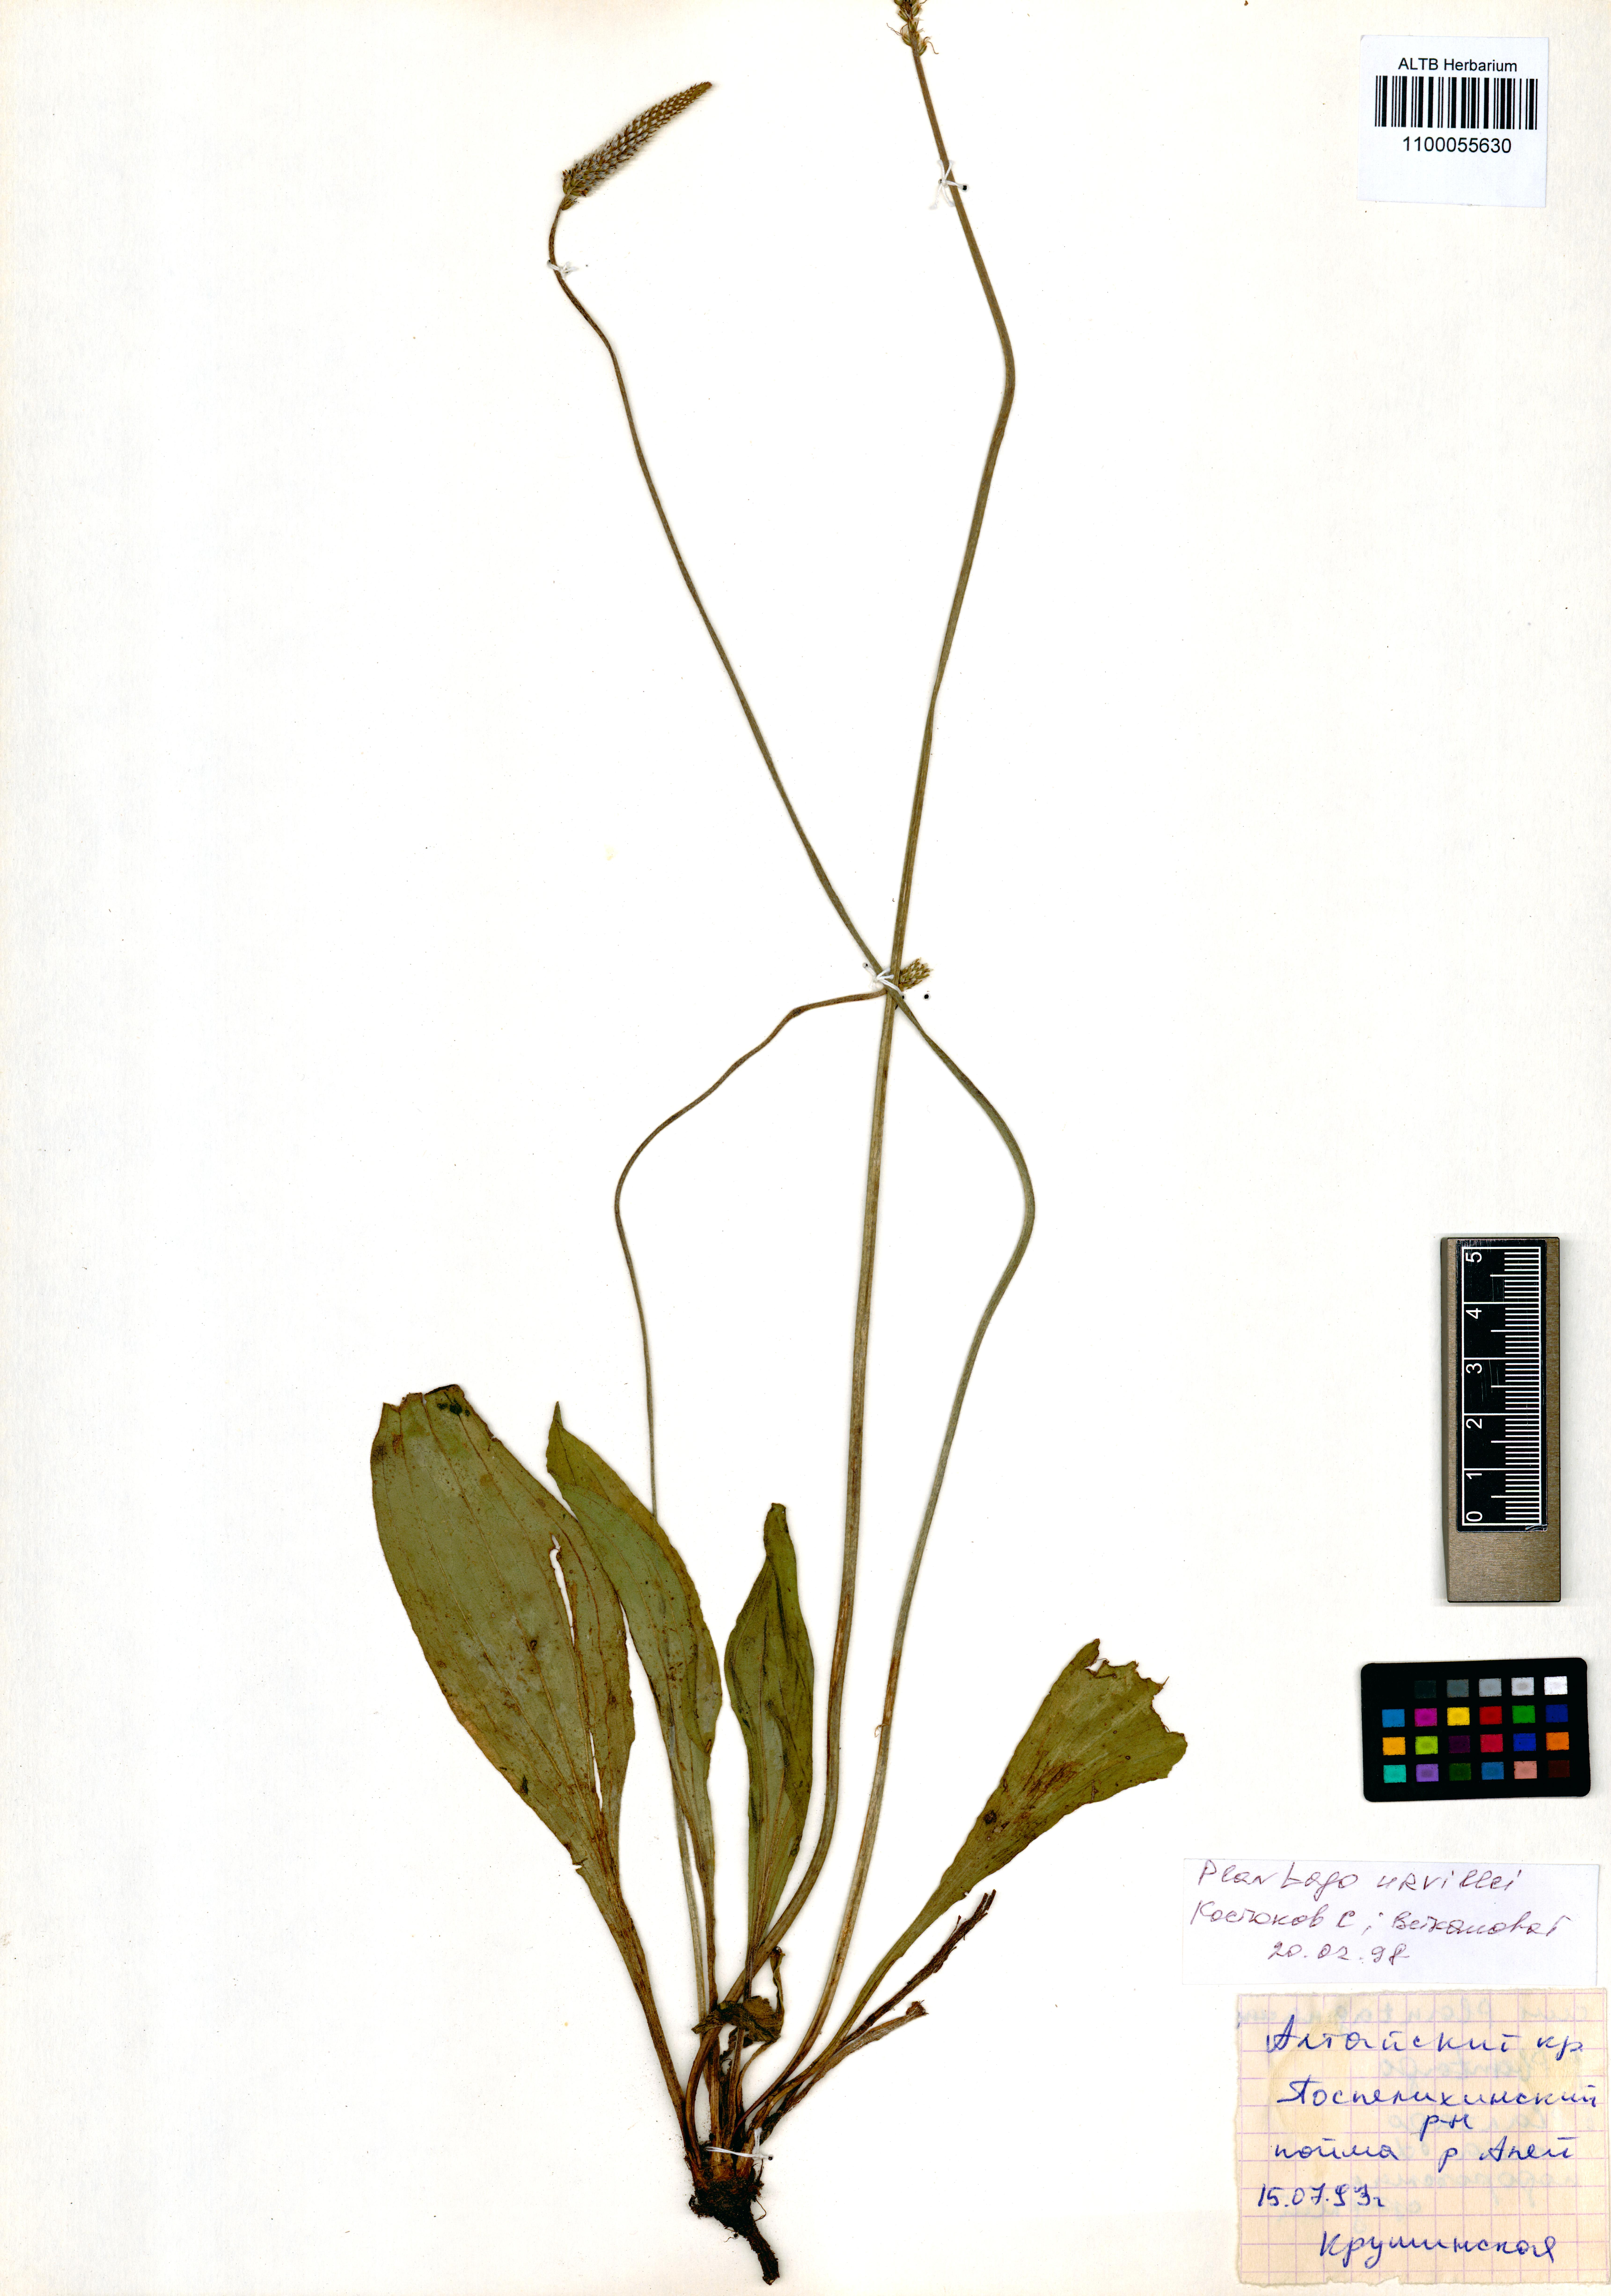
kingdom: Plantae
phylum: Tracheophyta
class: Magnoliopsida
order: Lamiales
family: Plantaginaceae
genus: Plantago
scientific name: Plantago urvillei
